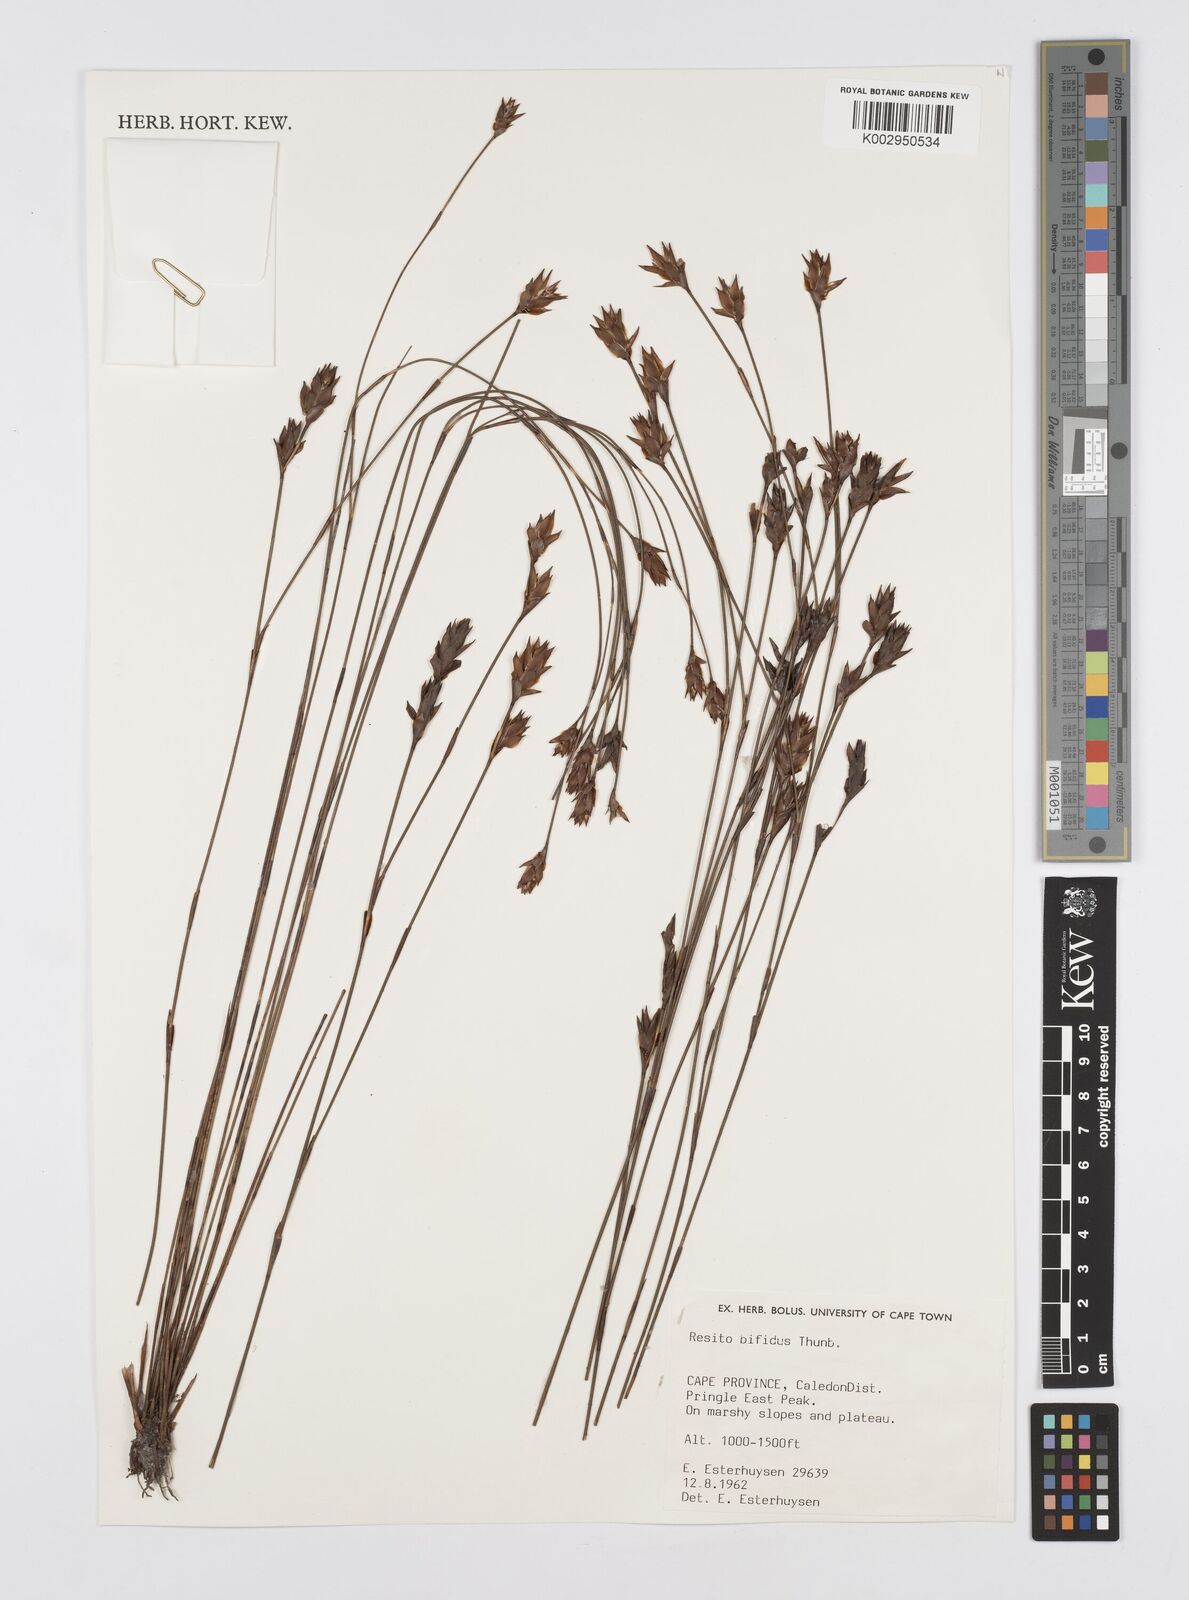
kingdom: Plantae
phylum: Tracheophyta
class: Liliopsida
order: Poales
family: Restionaceae
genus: Restio
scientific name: Restio bifidus
